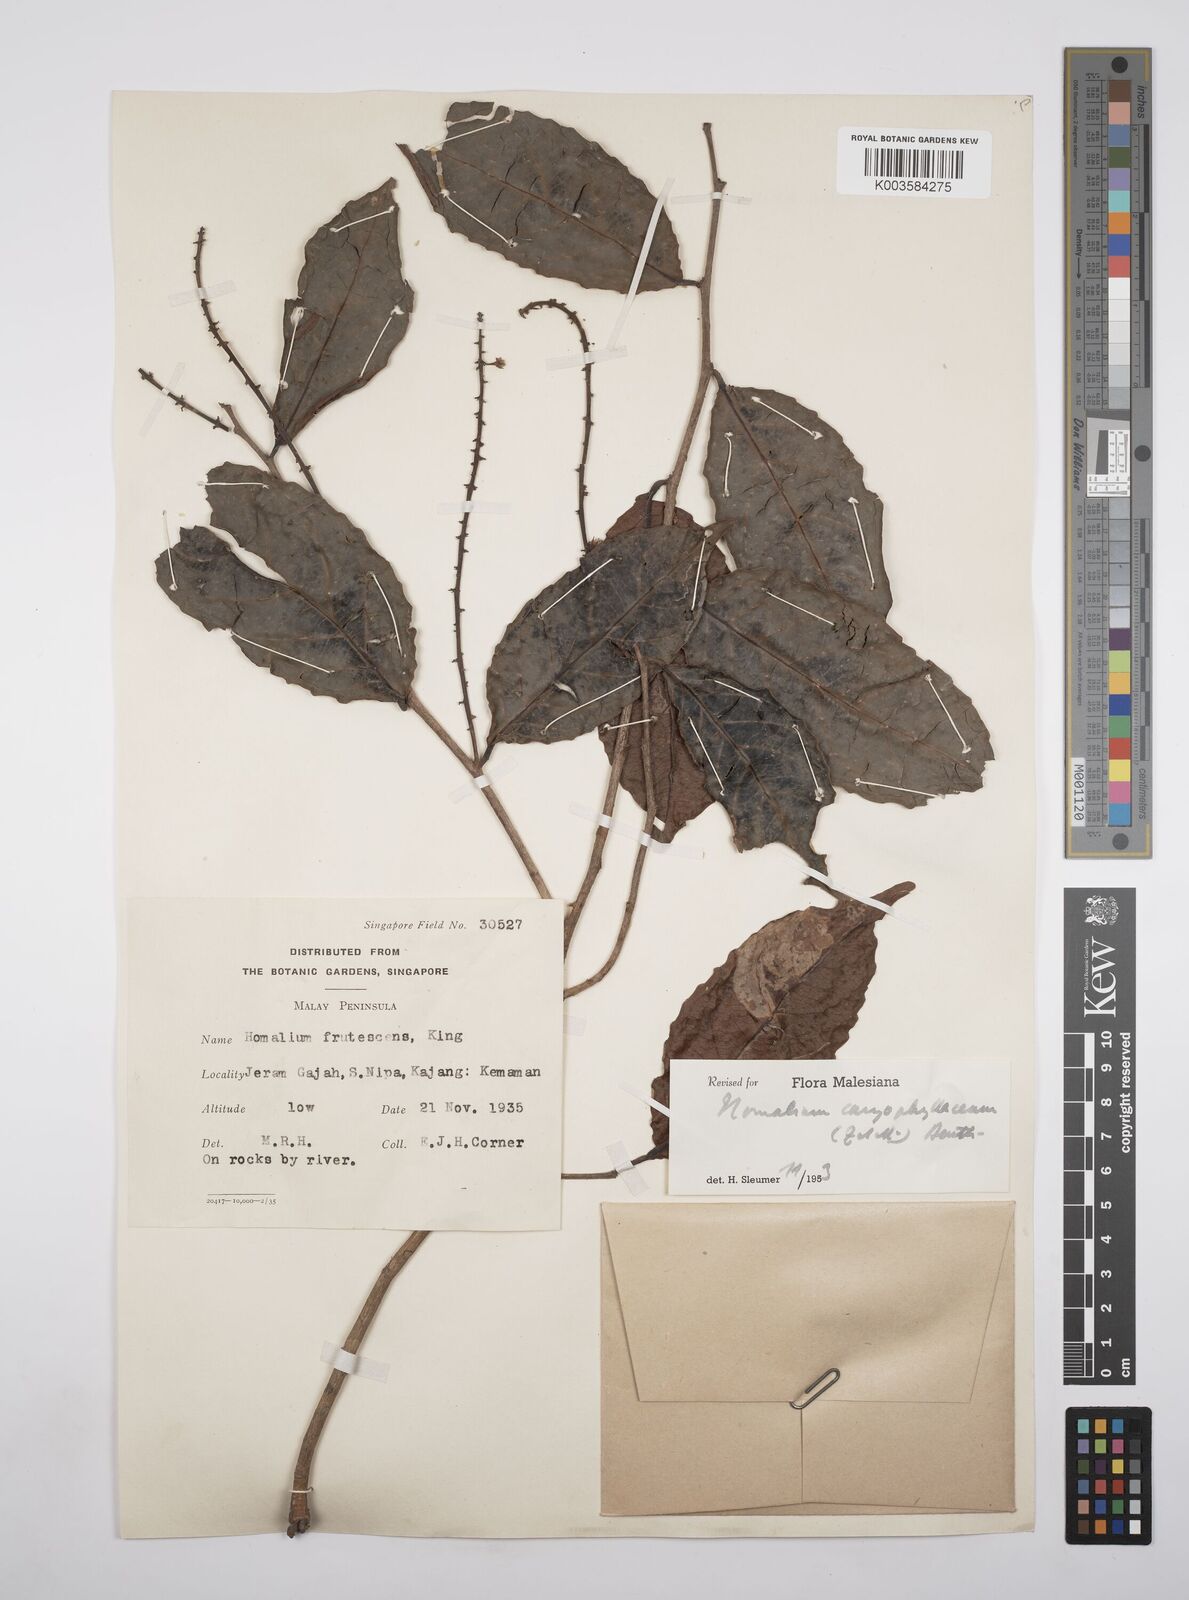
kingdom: Plantae
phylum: Tracheophyta
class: Magnoliopsida
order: Malpighiales
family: Salicaceae
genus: Homalium
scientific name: Homalium caryophyllaceum
